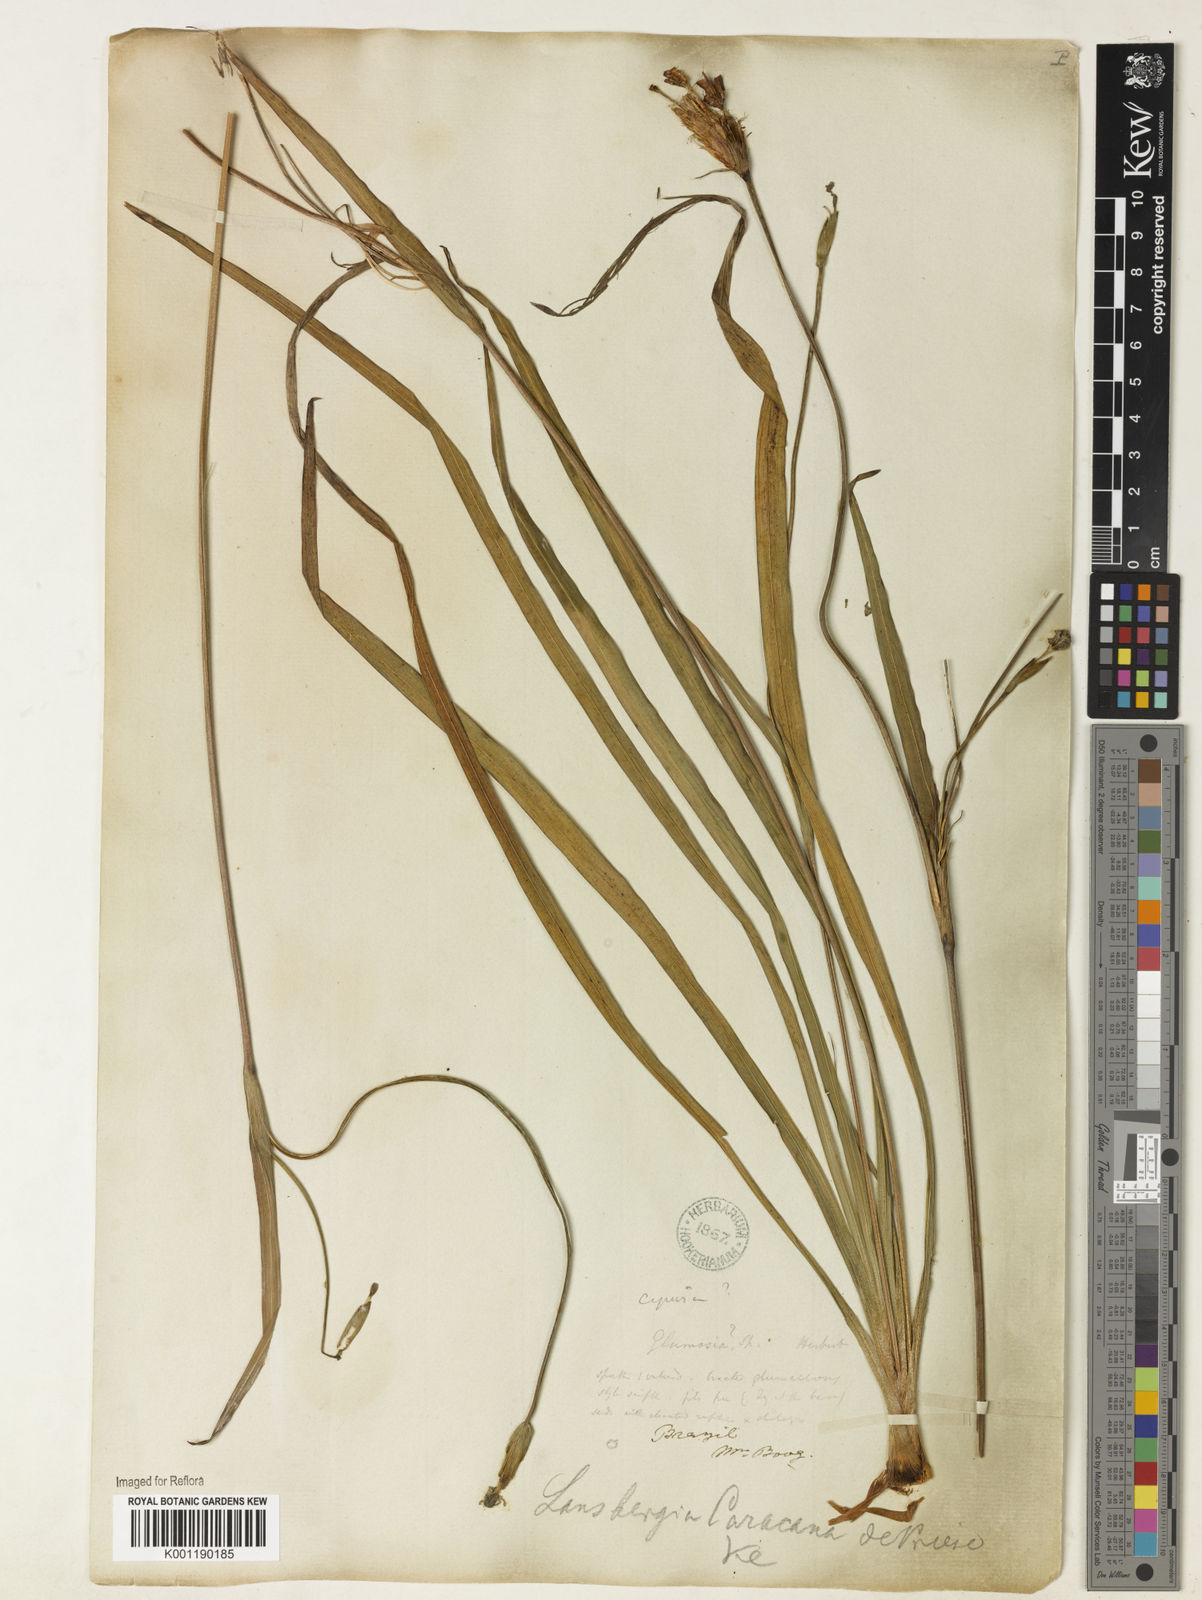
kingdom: Plantae
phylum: Tracheophyta
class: Liliopsida
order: Asparagales
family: Iridaceae
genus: Trimezia
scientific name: Trimezia martinicensis
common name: Martinique trimezia
